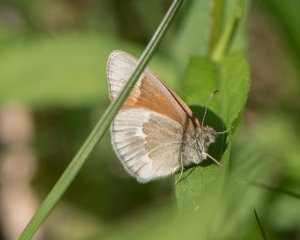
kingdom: Animalia
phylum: Arthropoda
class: Insecta
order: Lepidoptera
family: Nymphalidae
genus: Coenonympha
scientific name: Coenonympha tullia
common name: Large Heath
